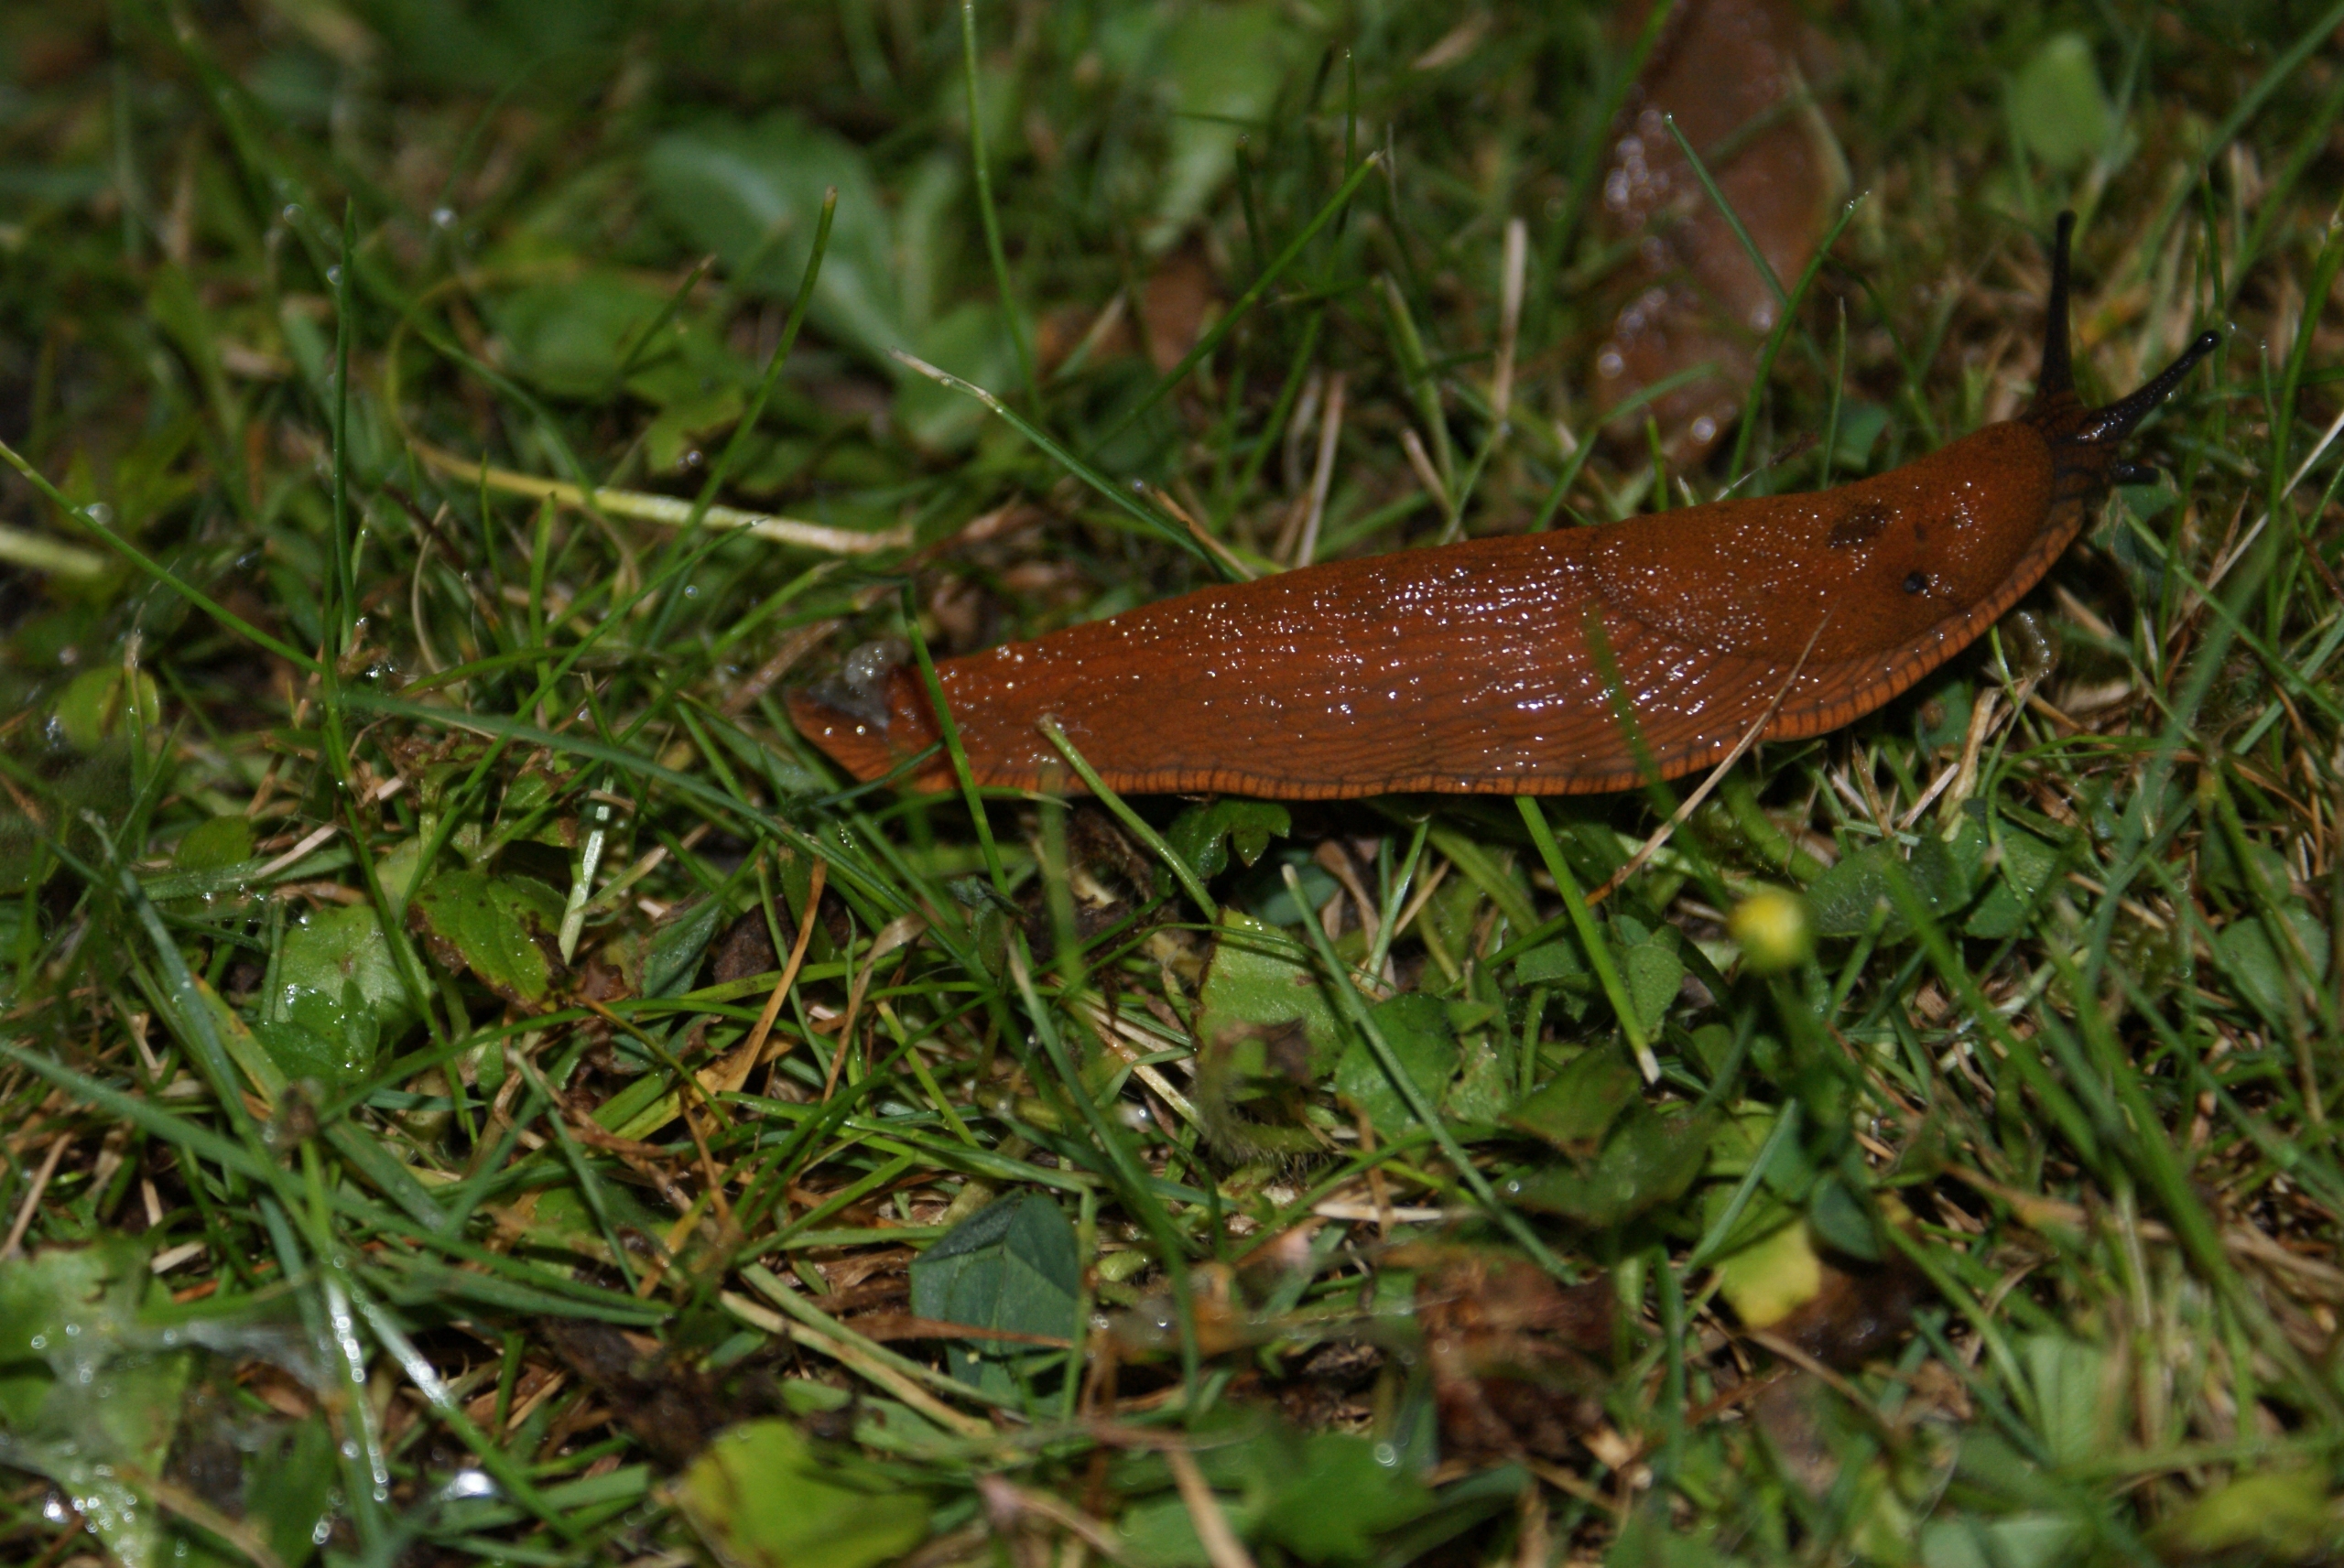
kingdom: Animalia
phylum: Mollusca
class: Gastropoda
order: Stylommatophora
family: Arionidae
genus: Arion
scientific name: Arion vulgaris
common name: Iberisk skovsnegl
